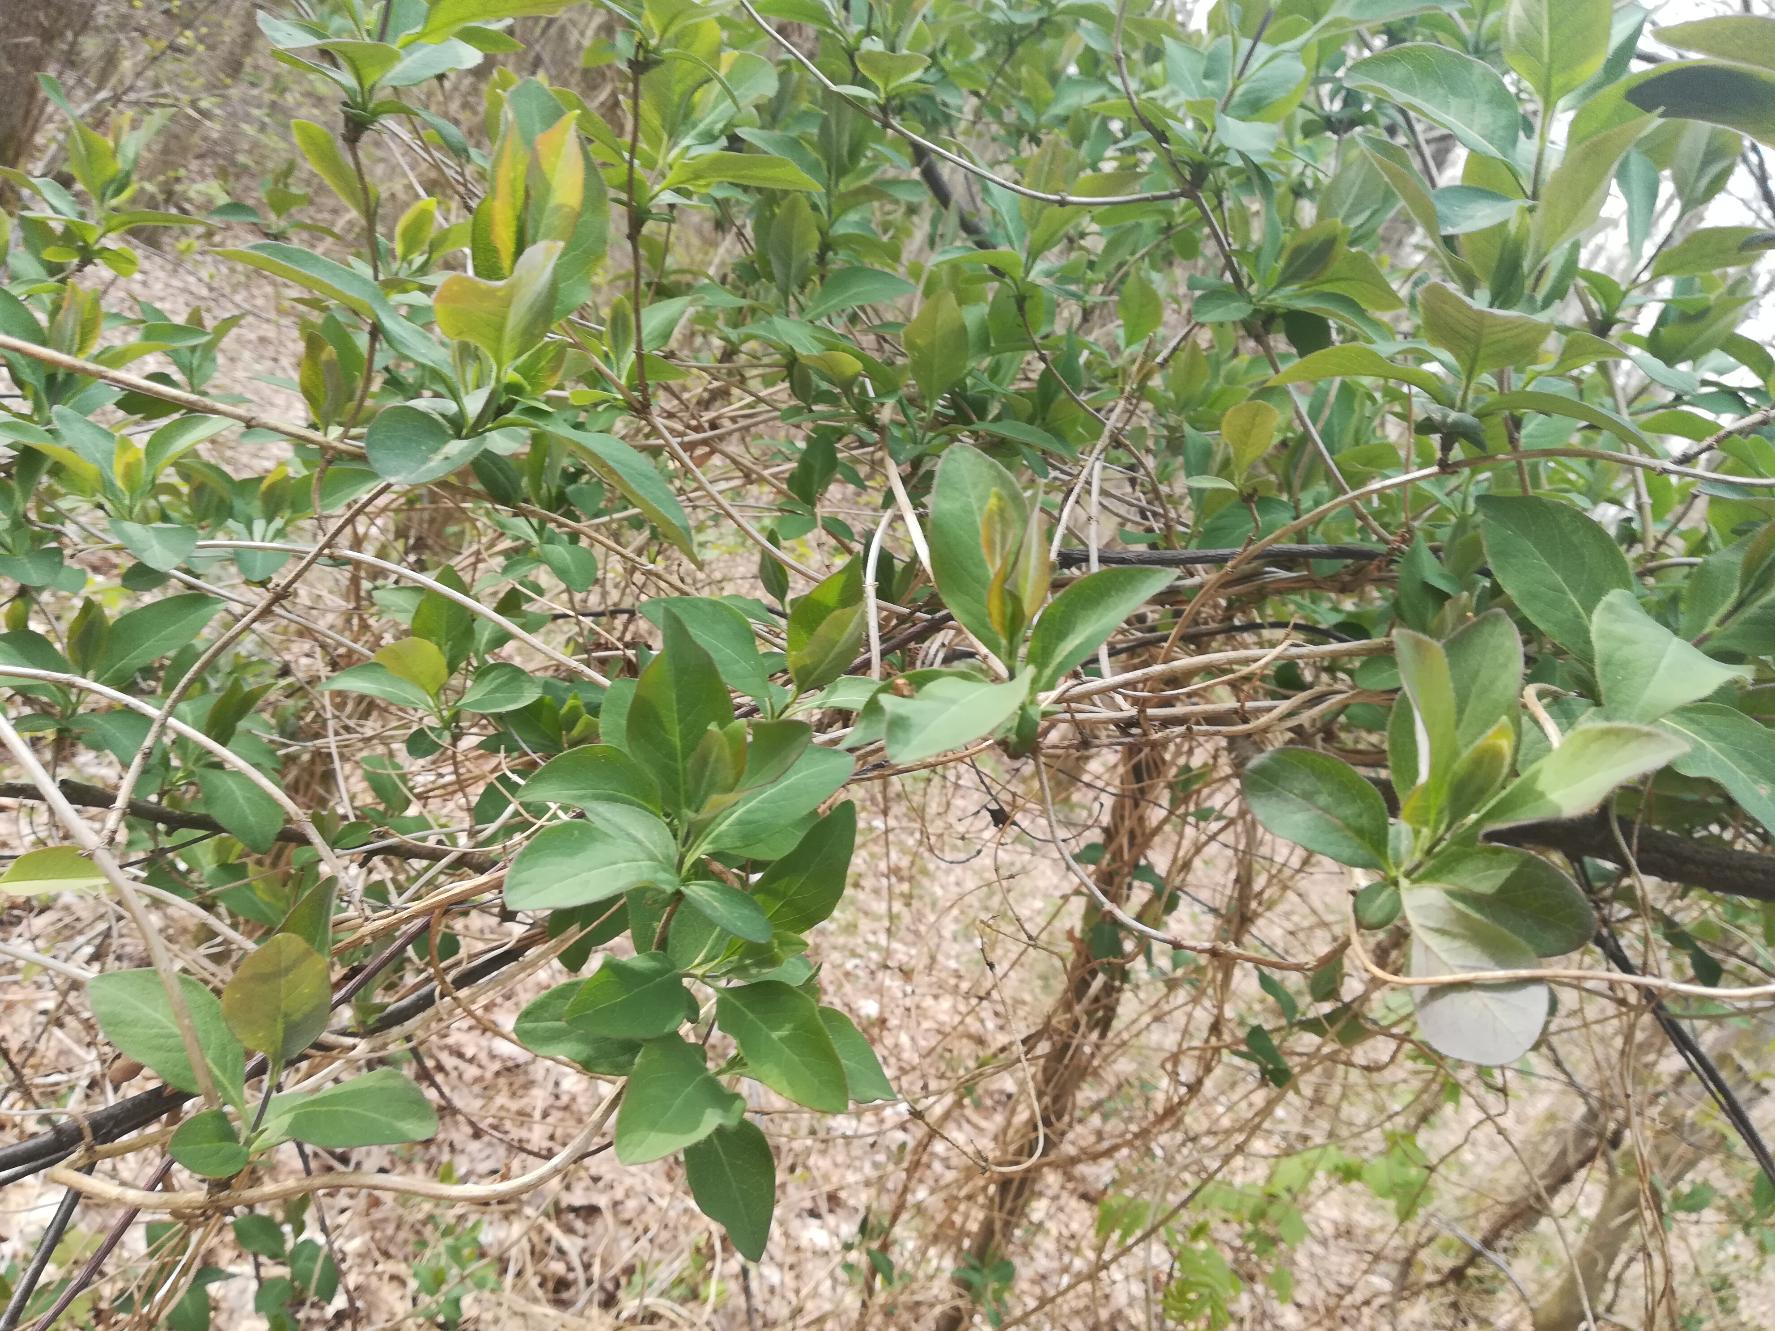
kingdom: Plantae
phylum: Tracheophyta
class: Magnoliopsida
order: Dipsacales
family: Caprifoliaceae
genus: Lonicera
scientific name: Lonicera periclymenum
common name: Almindelig gedeblad
